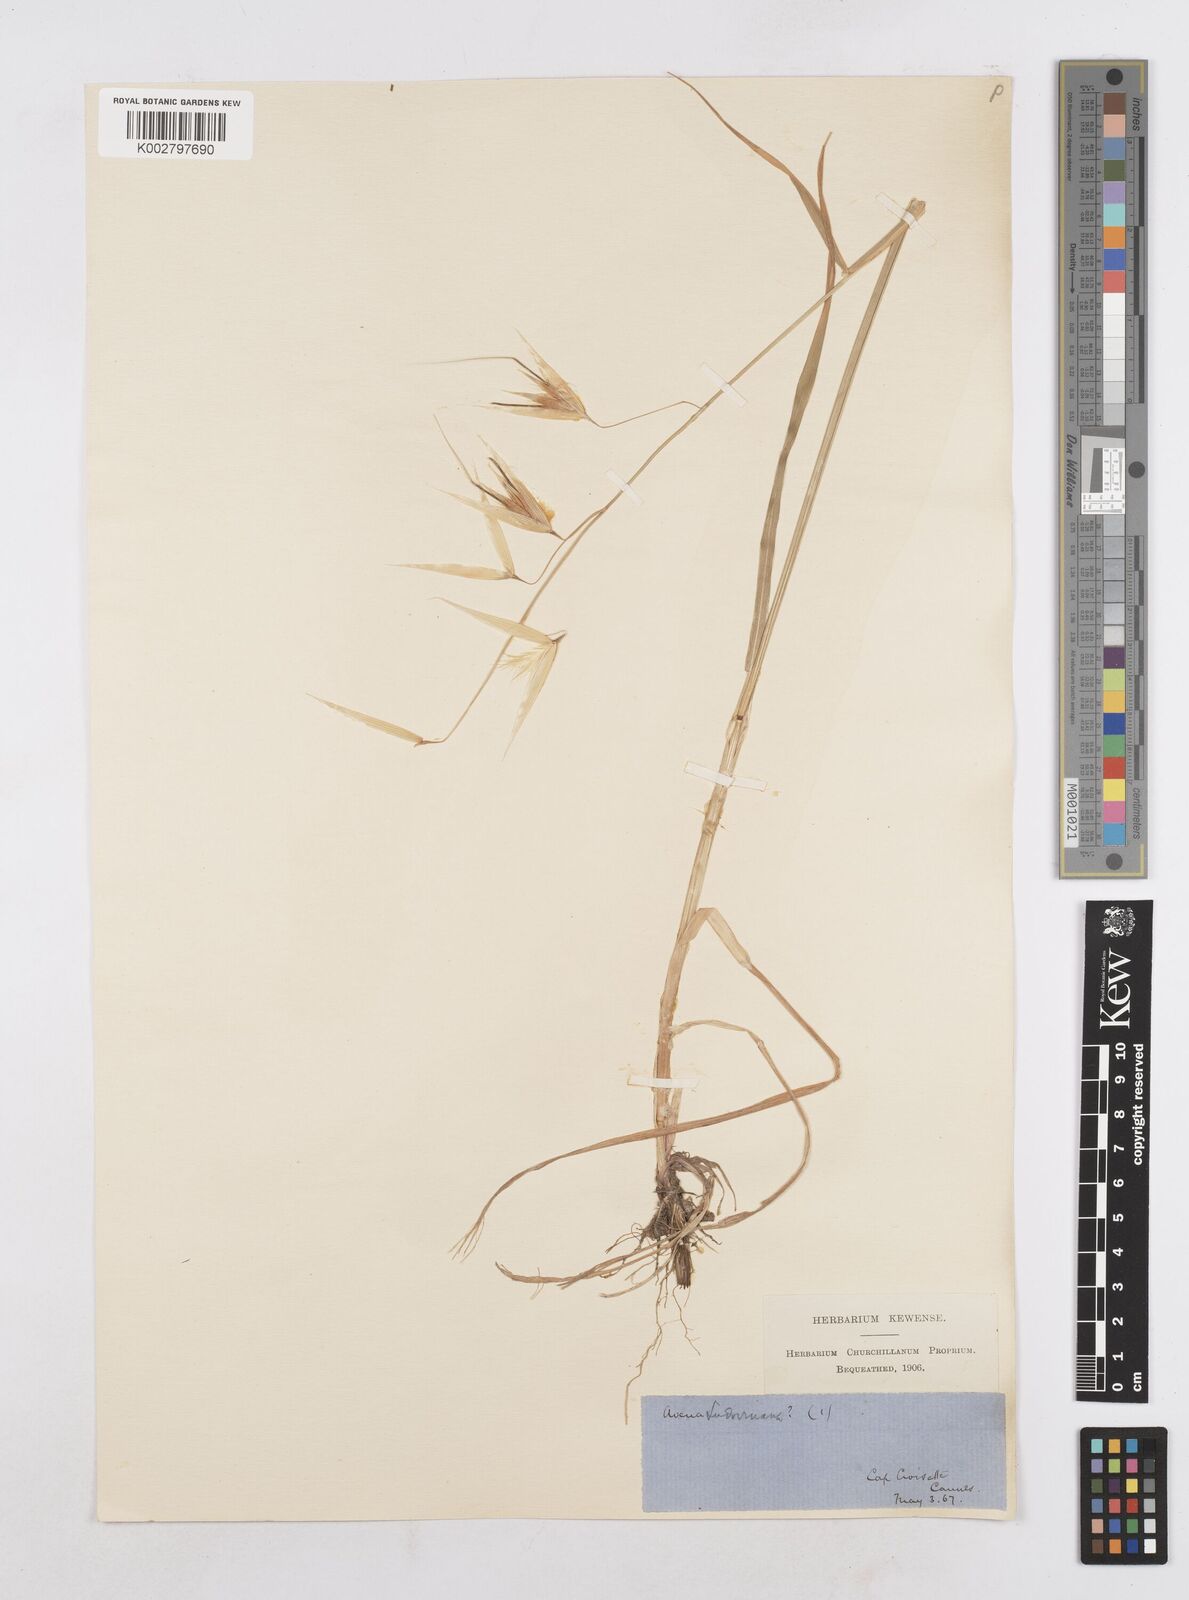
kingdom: Plantae
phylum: Tracheophyta
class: Liliopsida
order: Poales
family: Poaceae
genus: Avena
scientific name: Avena sterilis
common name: Animated oat
